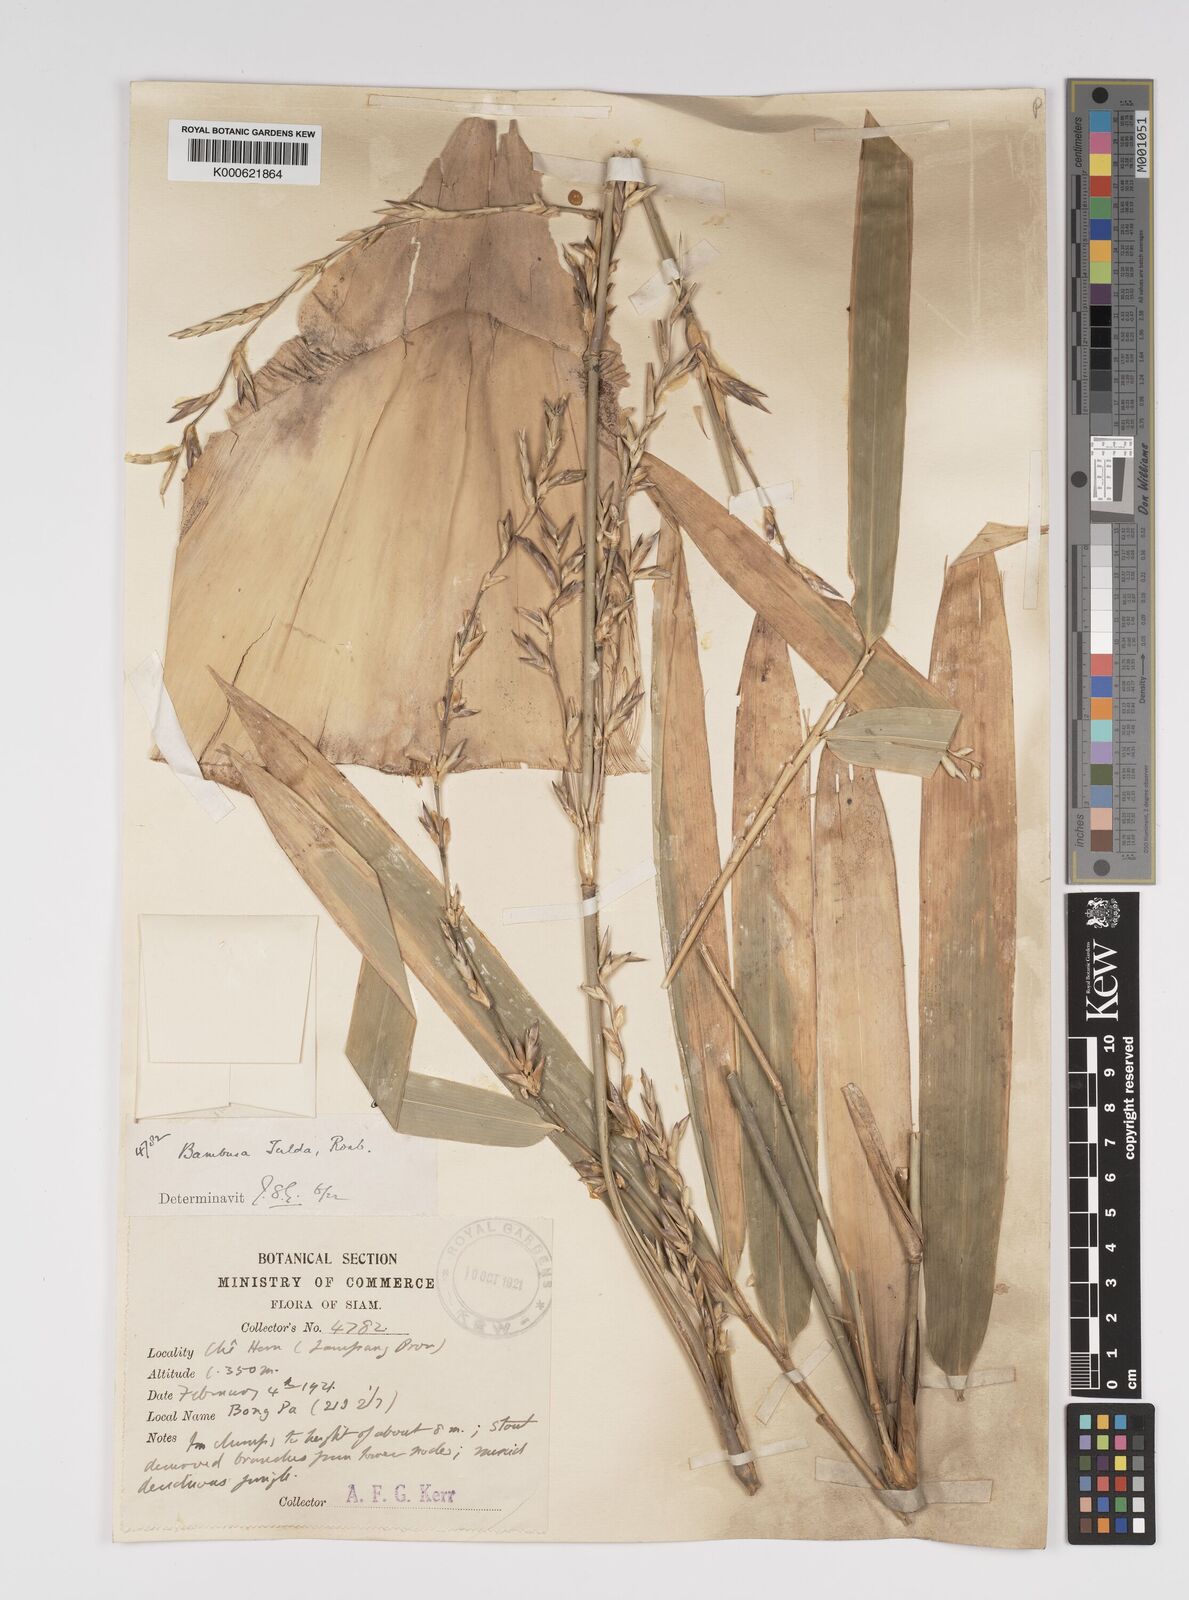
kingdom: Plantae
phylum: Tracheophyta
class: Liliopsida
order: Poales
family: Poaceae
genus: Bambusa
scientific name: Bambusa tulda
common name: Bengal bamboo
